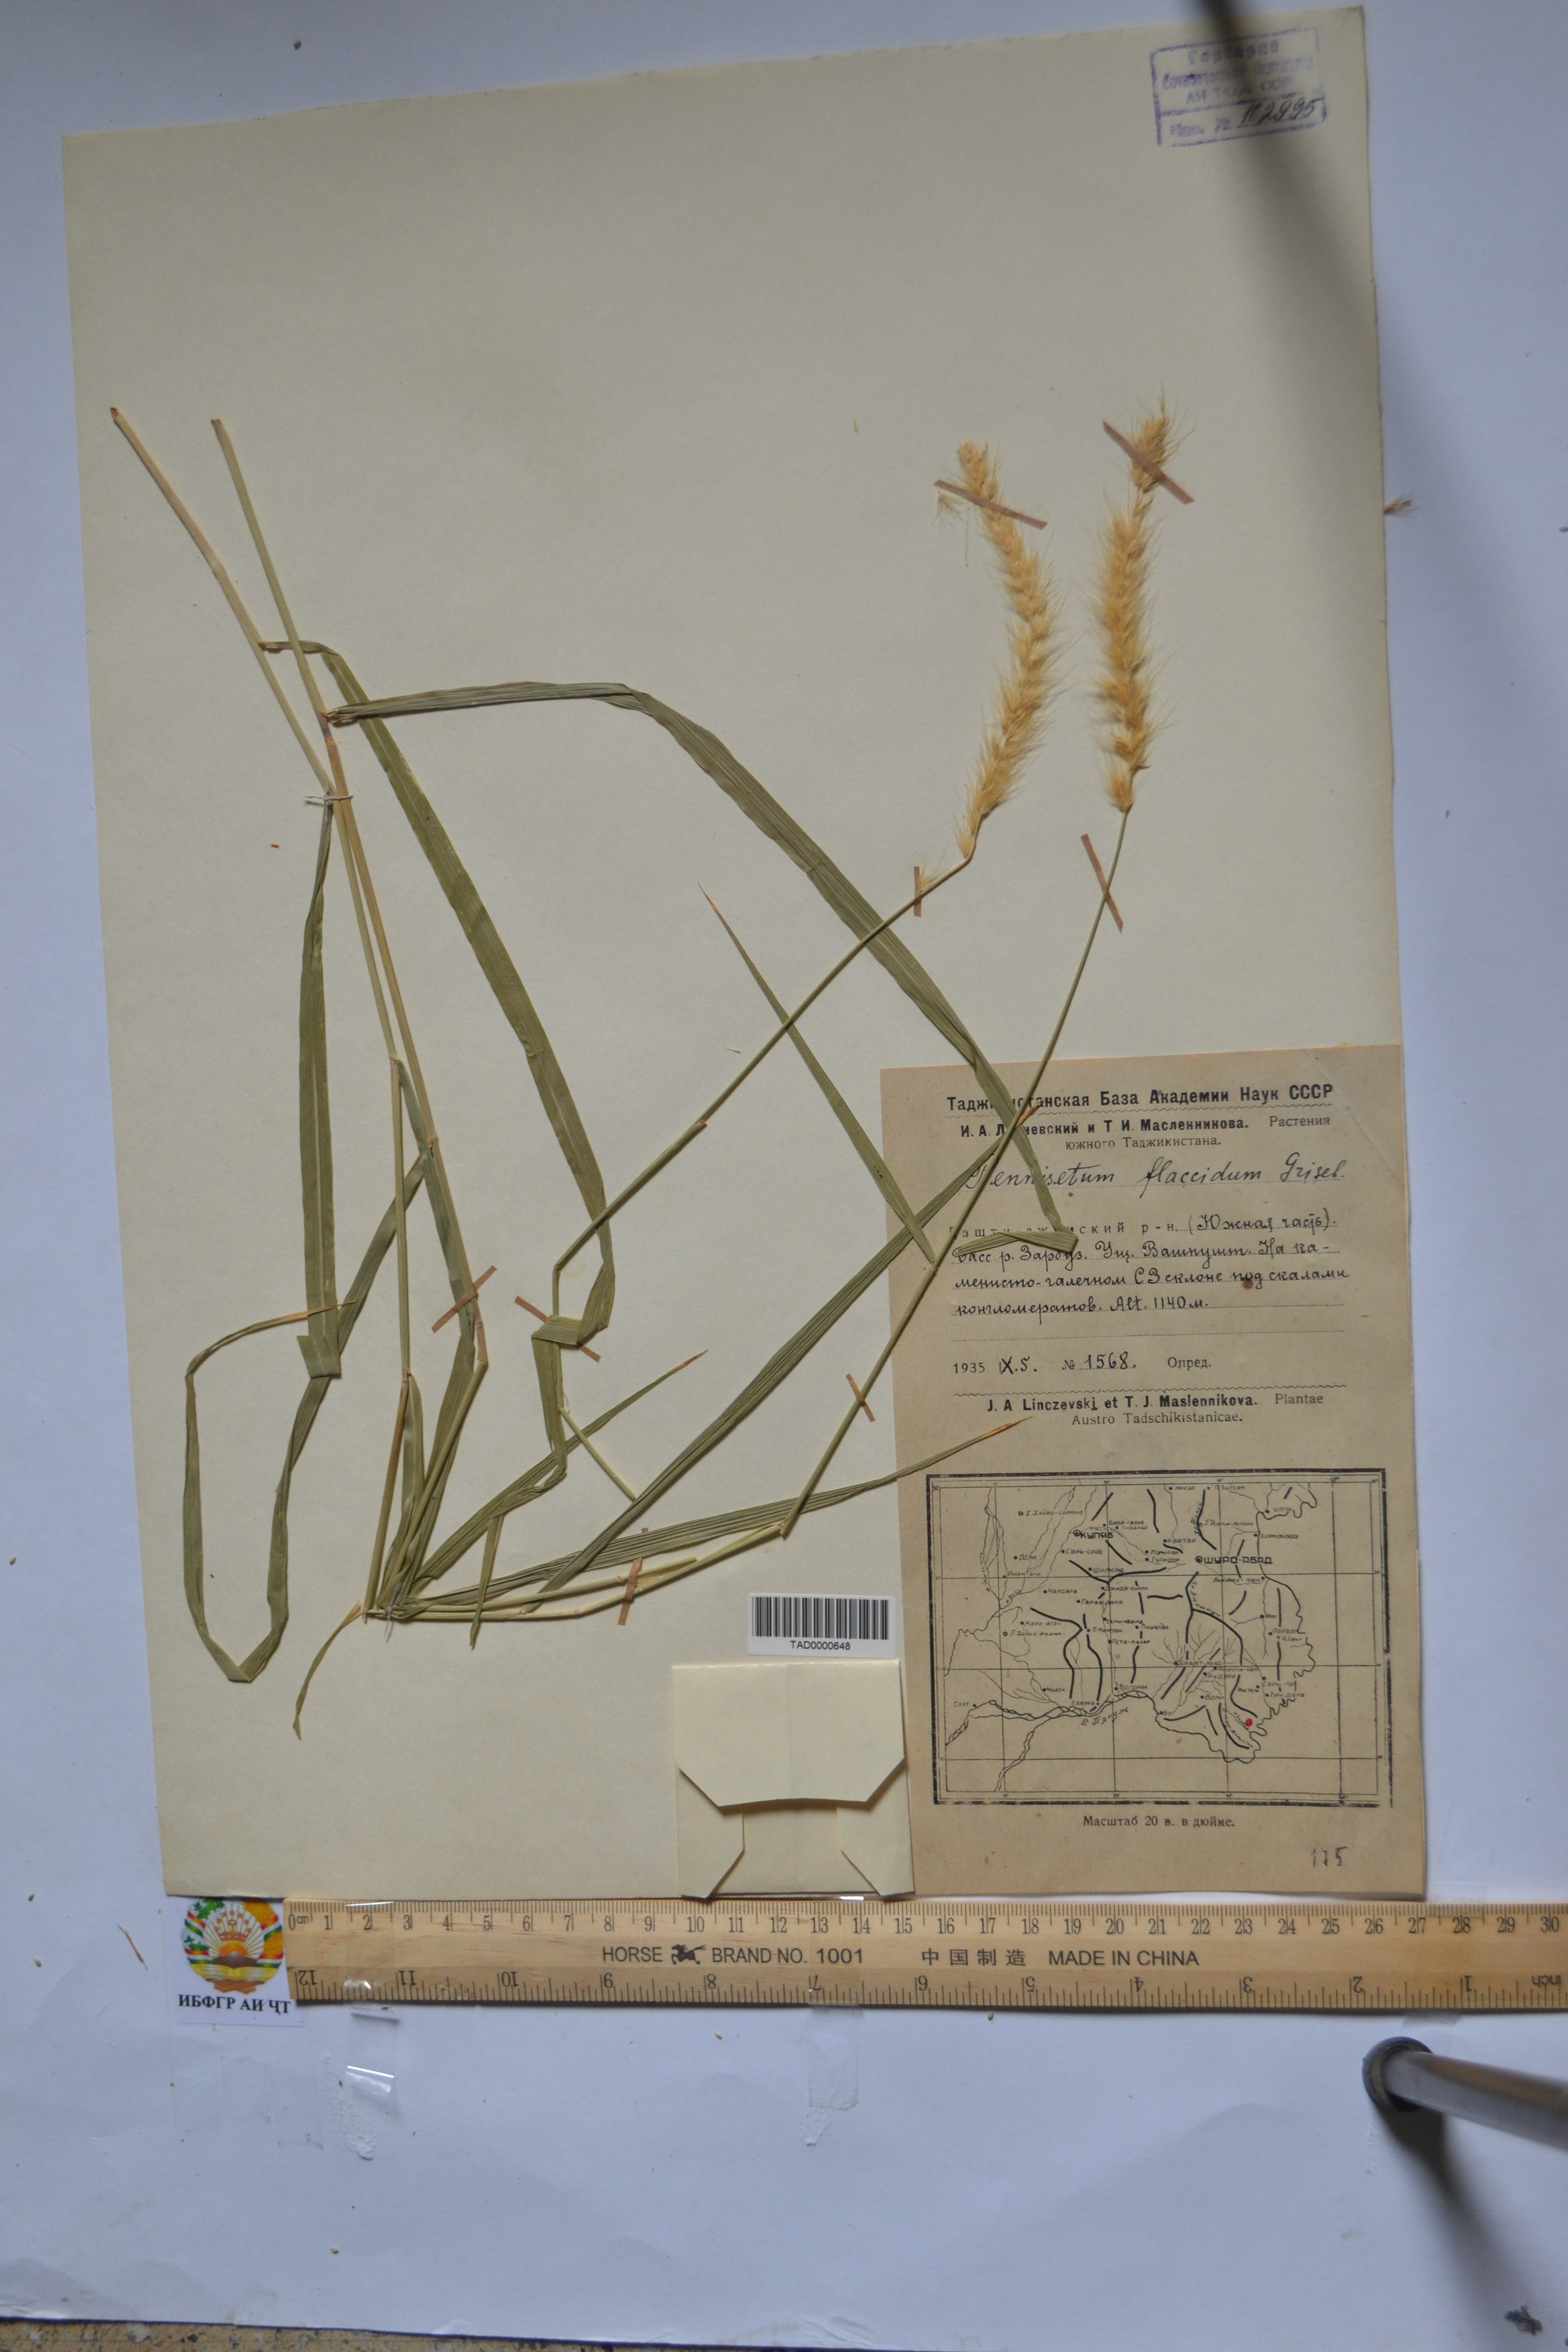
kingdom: Plantae
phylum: Tracheophyta
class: Liliopsida
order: Poales
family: Poaceae
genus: Cenchrus
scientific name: Cenchrus flaccidus
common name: Flaccid grass
